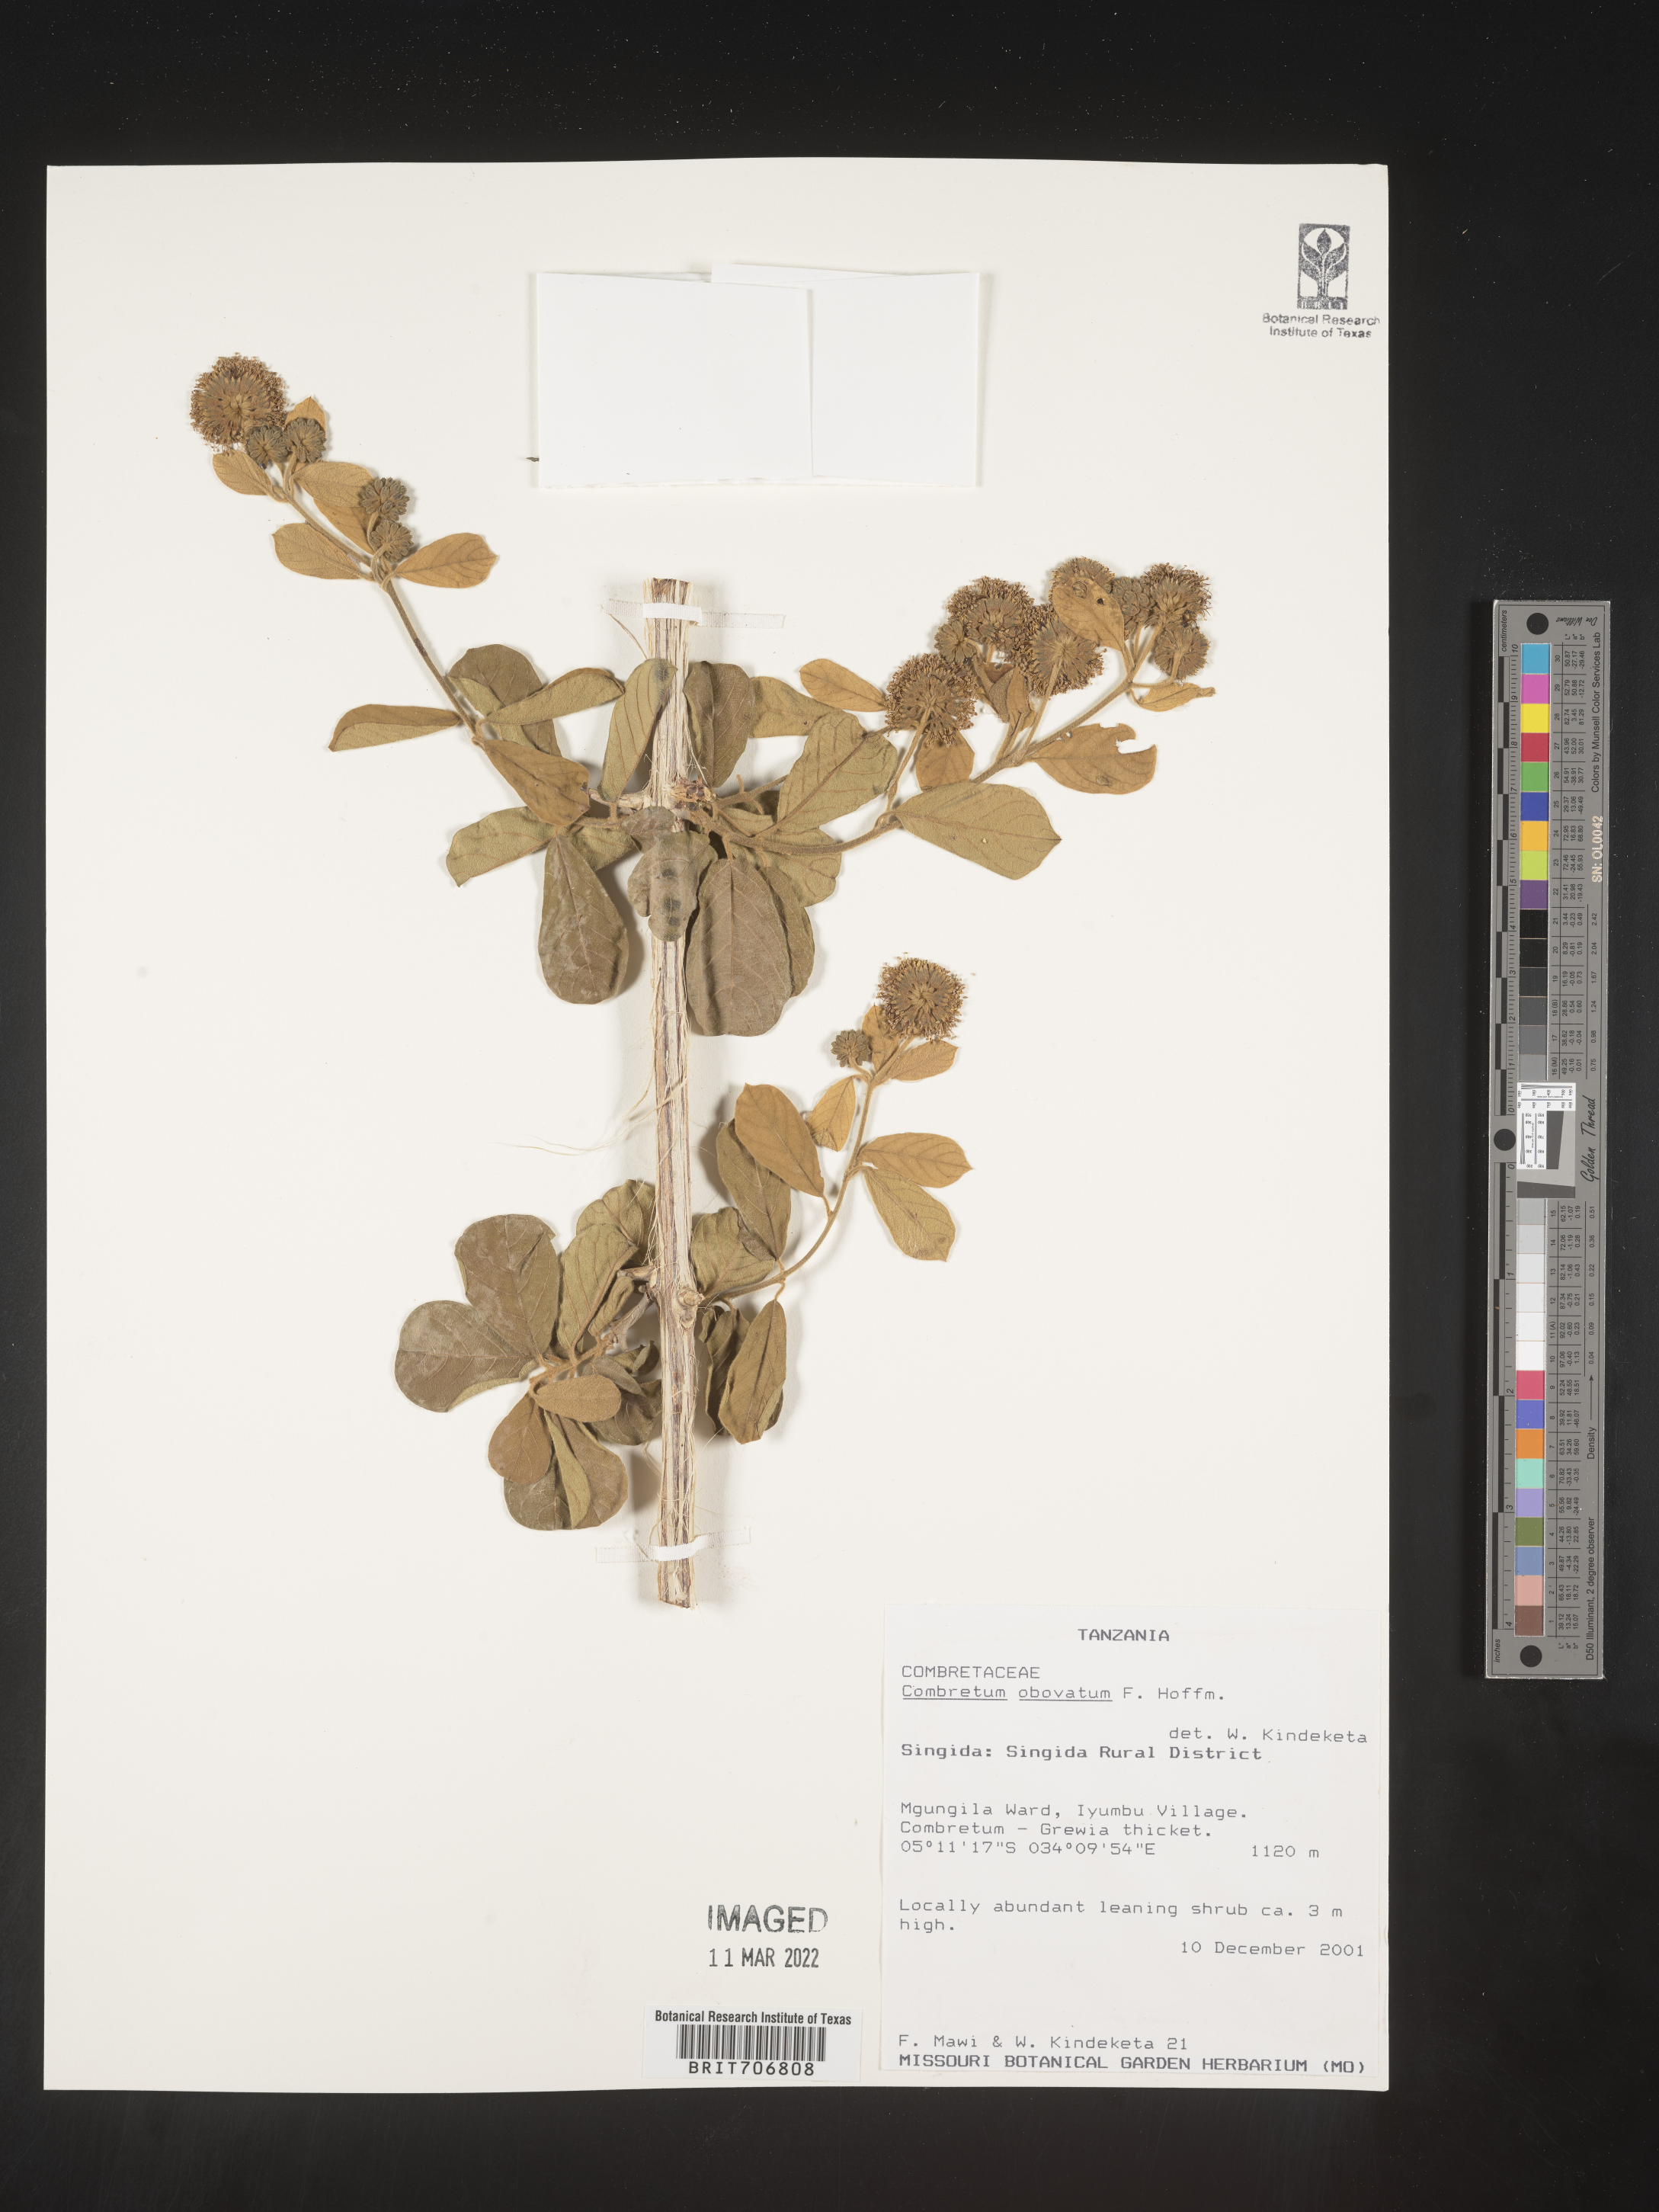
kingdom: Plantae
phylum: Tracheophyta
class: Magnoliopsida
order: Myrtales
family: Combretaceae
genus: Combretum
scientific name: Combretum
